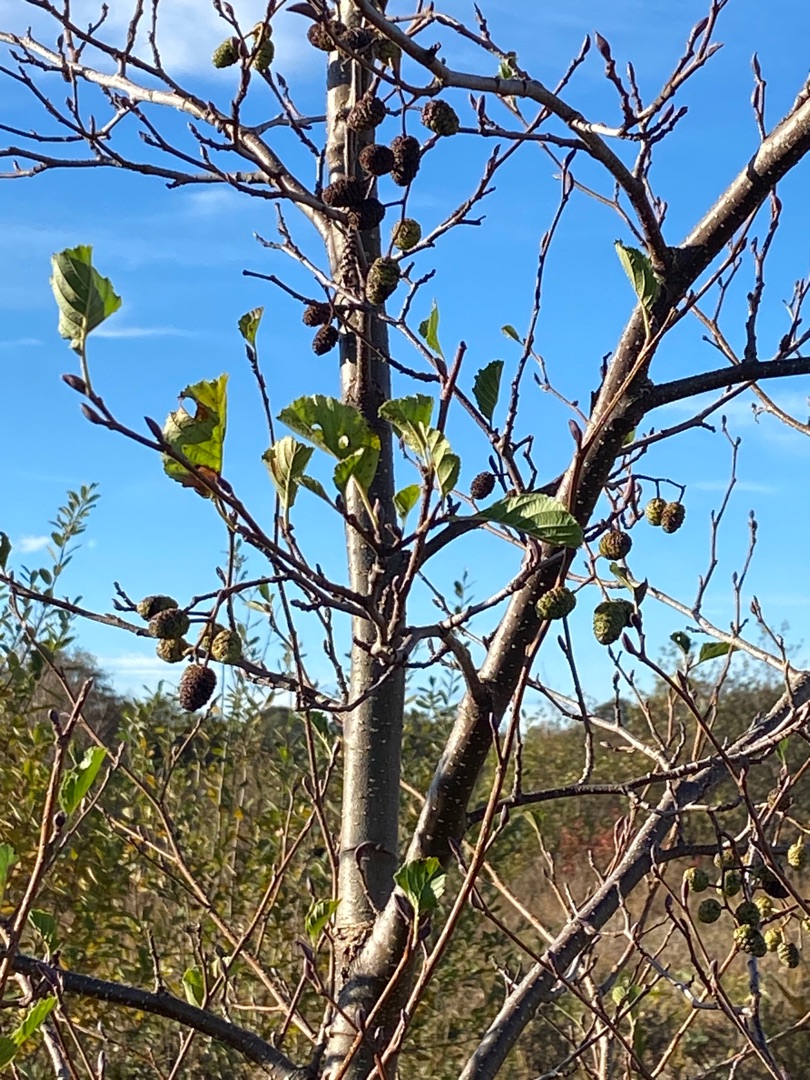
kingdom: Plantae
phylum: Tracheophyta
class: Magnoliopsida
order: Fagales
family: Betulaceae
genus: Alnus
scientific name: Alnus glutinosa
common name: Rød-el
